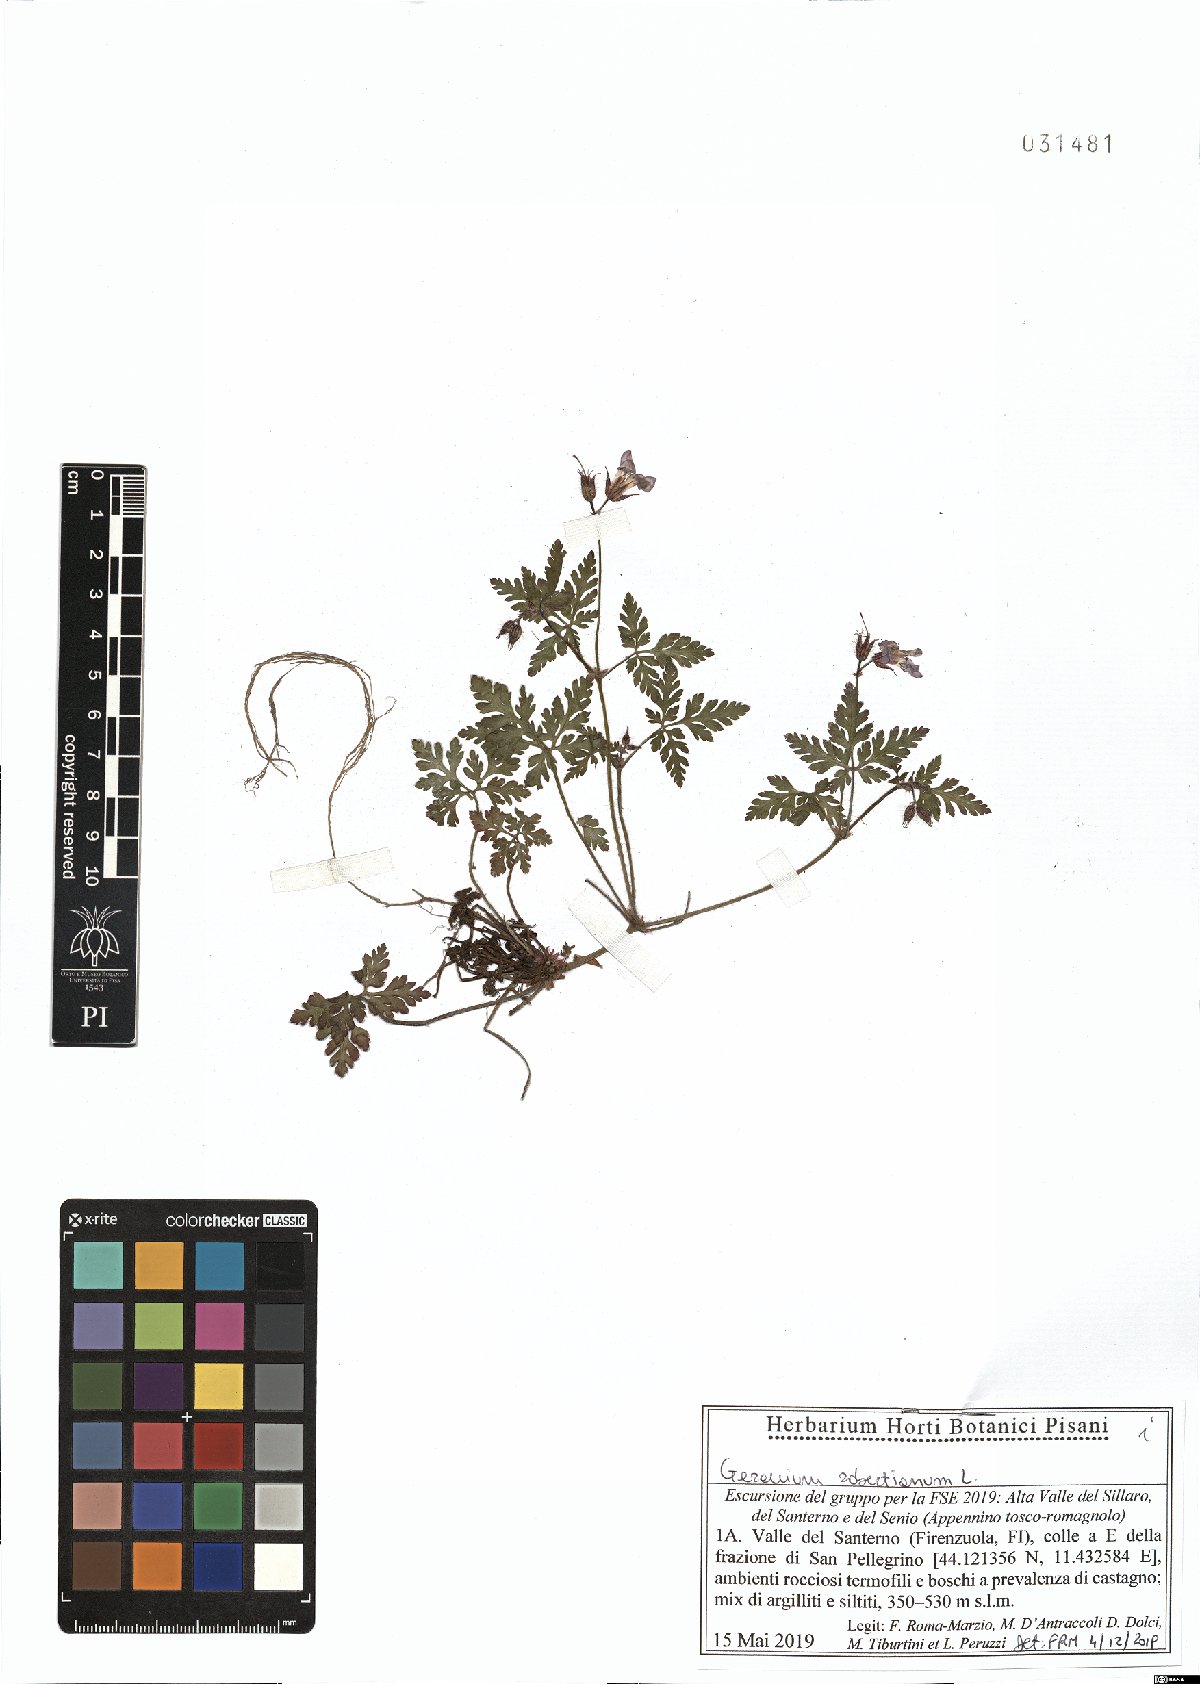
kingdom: Plantae
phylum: Tracheophyta
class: Magnoliopsida
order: Geraniales
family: Geraniaceae
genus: Geranium
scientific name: Geranium robertianum
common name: Herb-robert
